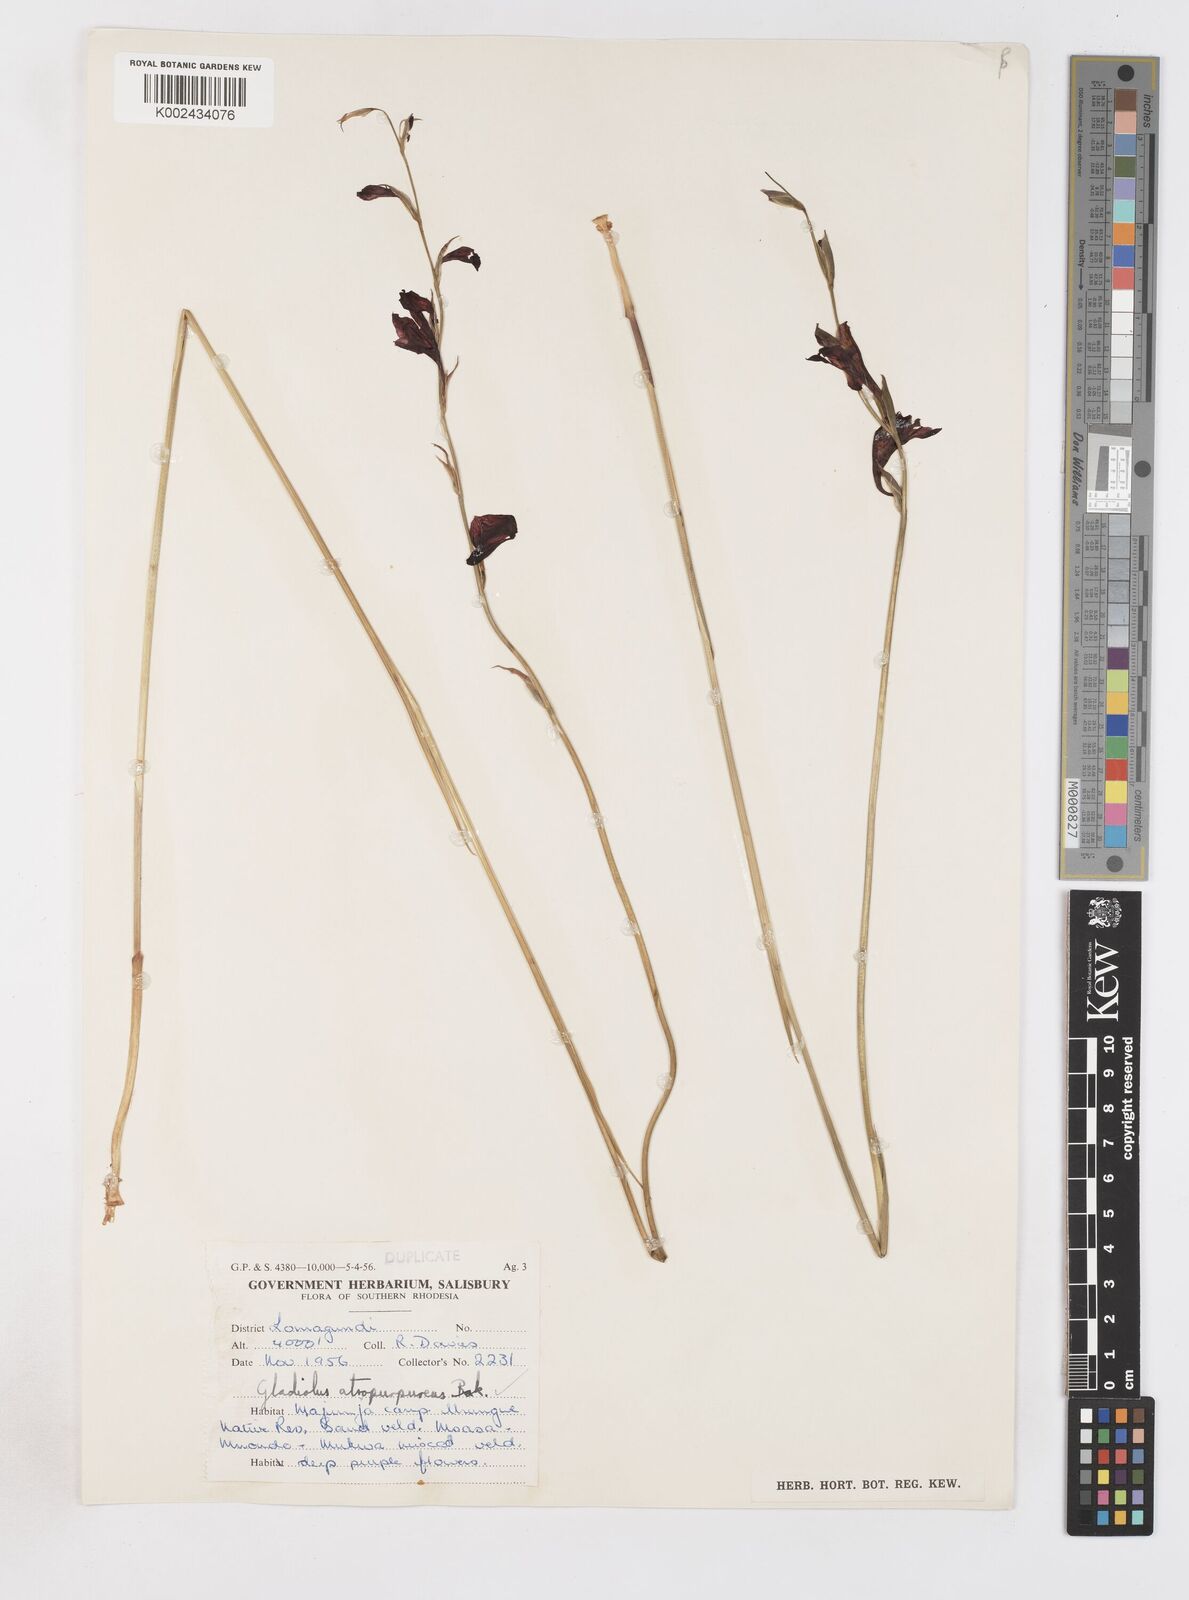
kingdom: Plantae
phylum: Tracheophyta
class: Liliopsida
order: Asparagales
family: Iridaceae
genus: Gladiolus
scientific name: Gladiolus atropurpureus
